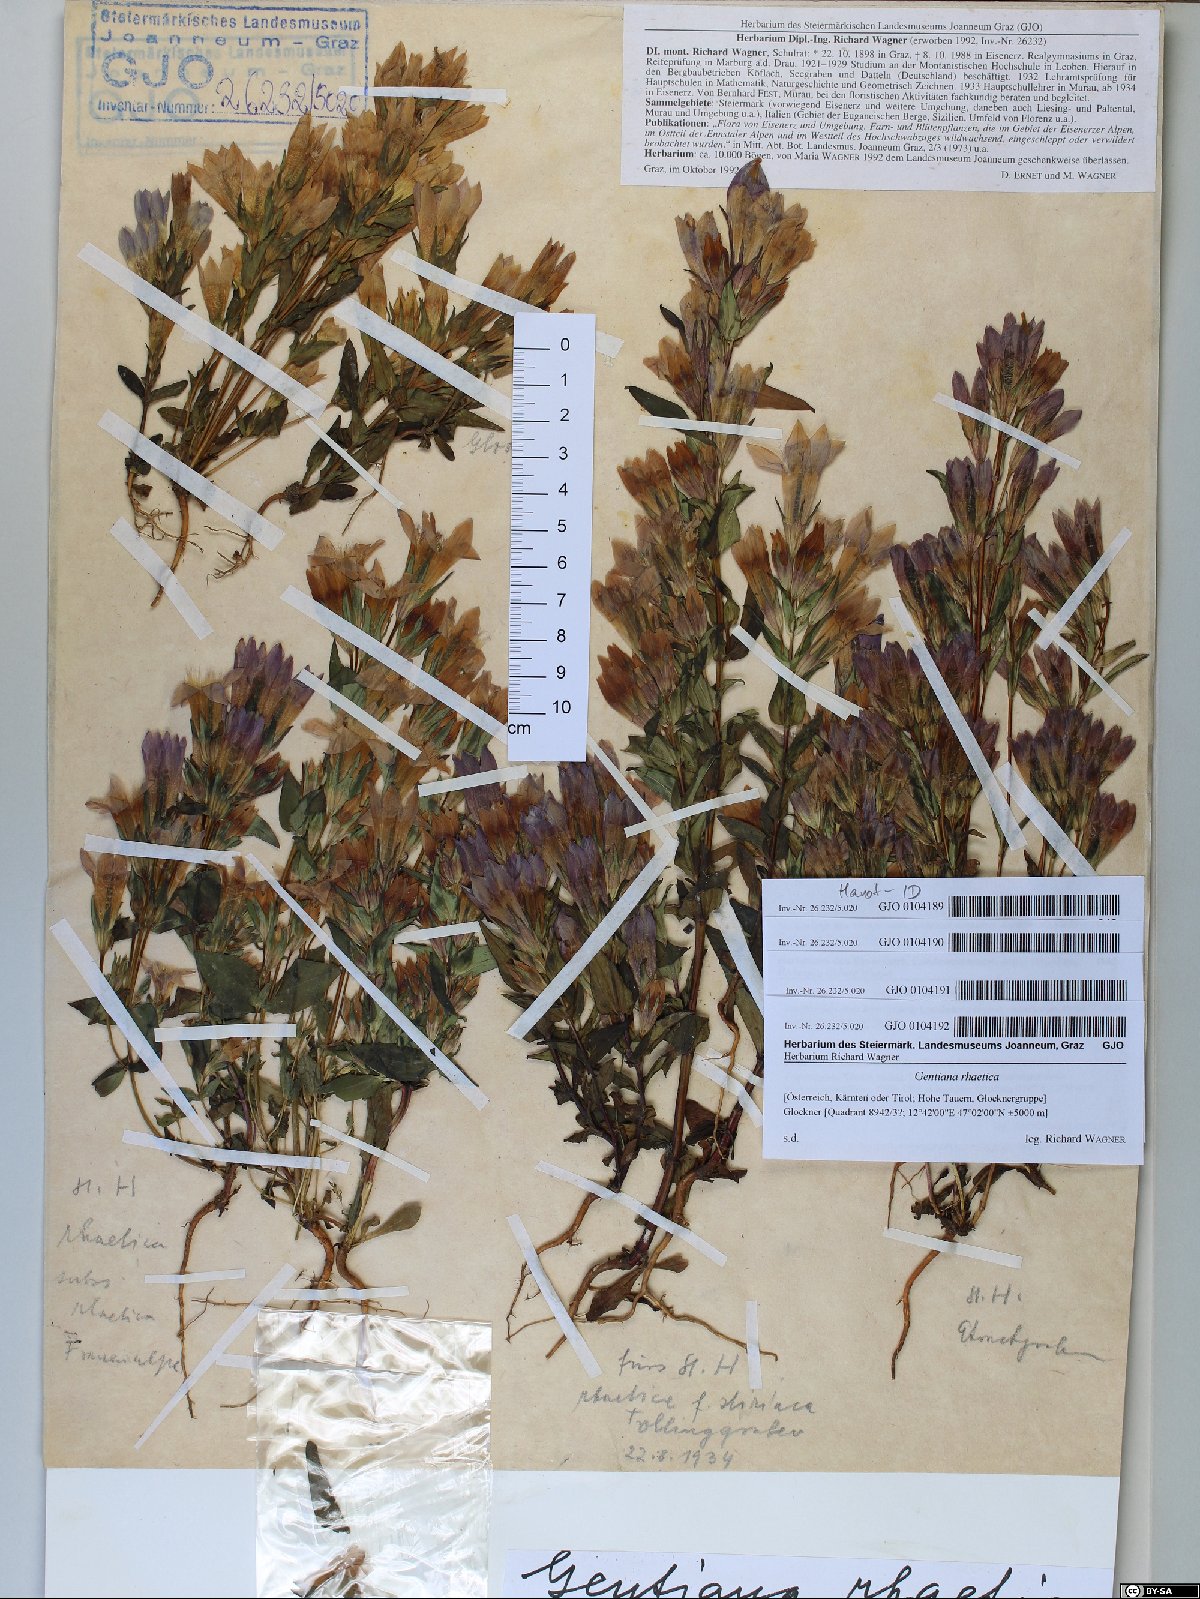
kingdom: Plantae
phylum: Tracheophyta
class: Magnoliopsida
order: Gentianales
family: Gentianaceae
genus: Gentianella
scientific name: Gentianella rhaetica
